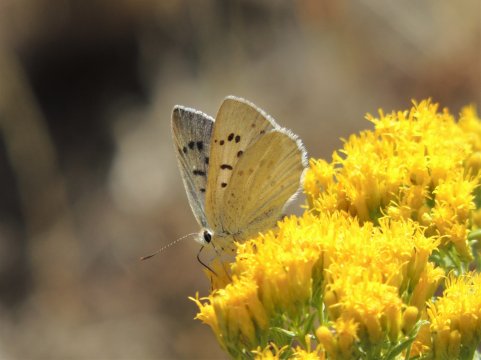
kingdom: Animalia
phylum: Arthropoda
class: Insecta
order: Lepidoptera
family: Lycaenidae
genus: Lycaena
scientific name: Lycaena heteronea
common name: Blue Copper
